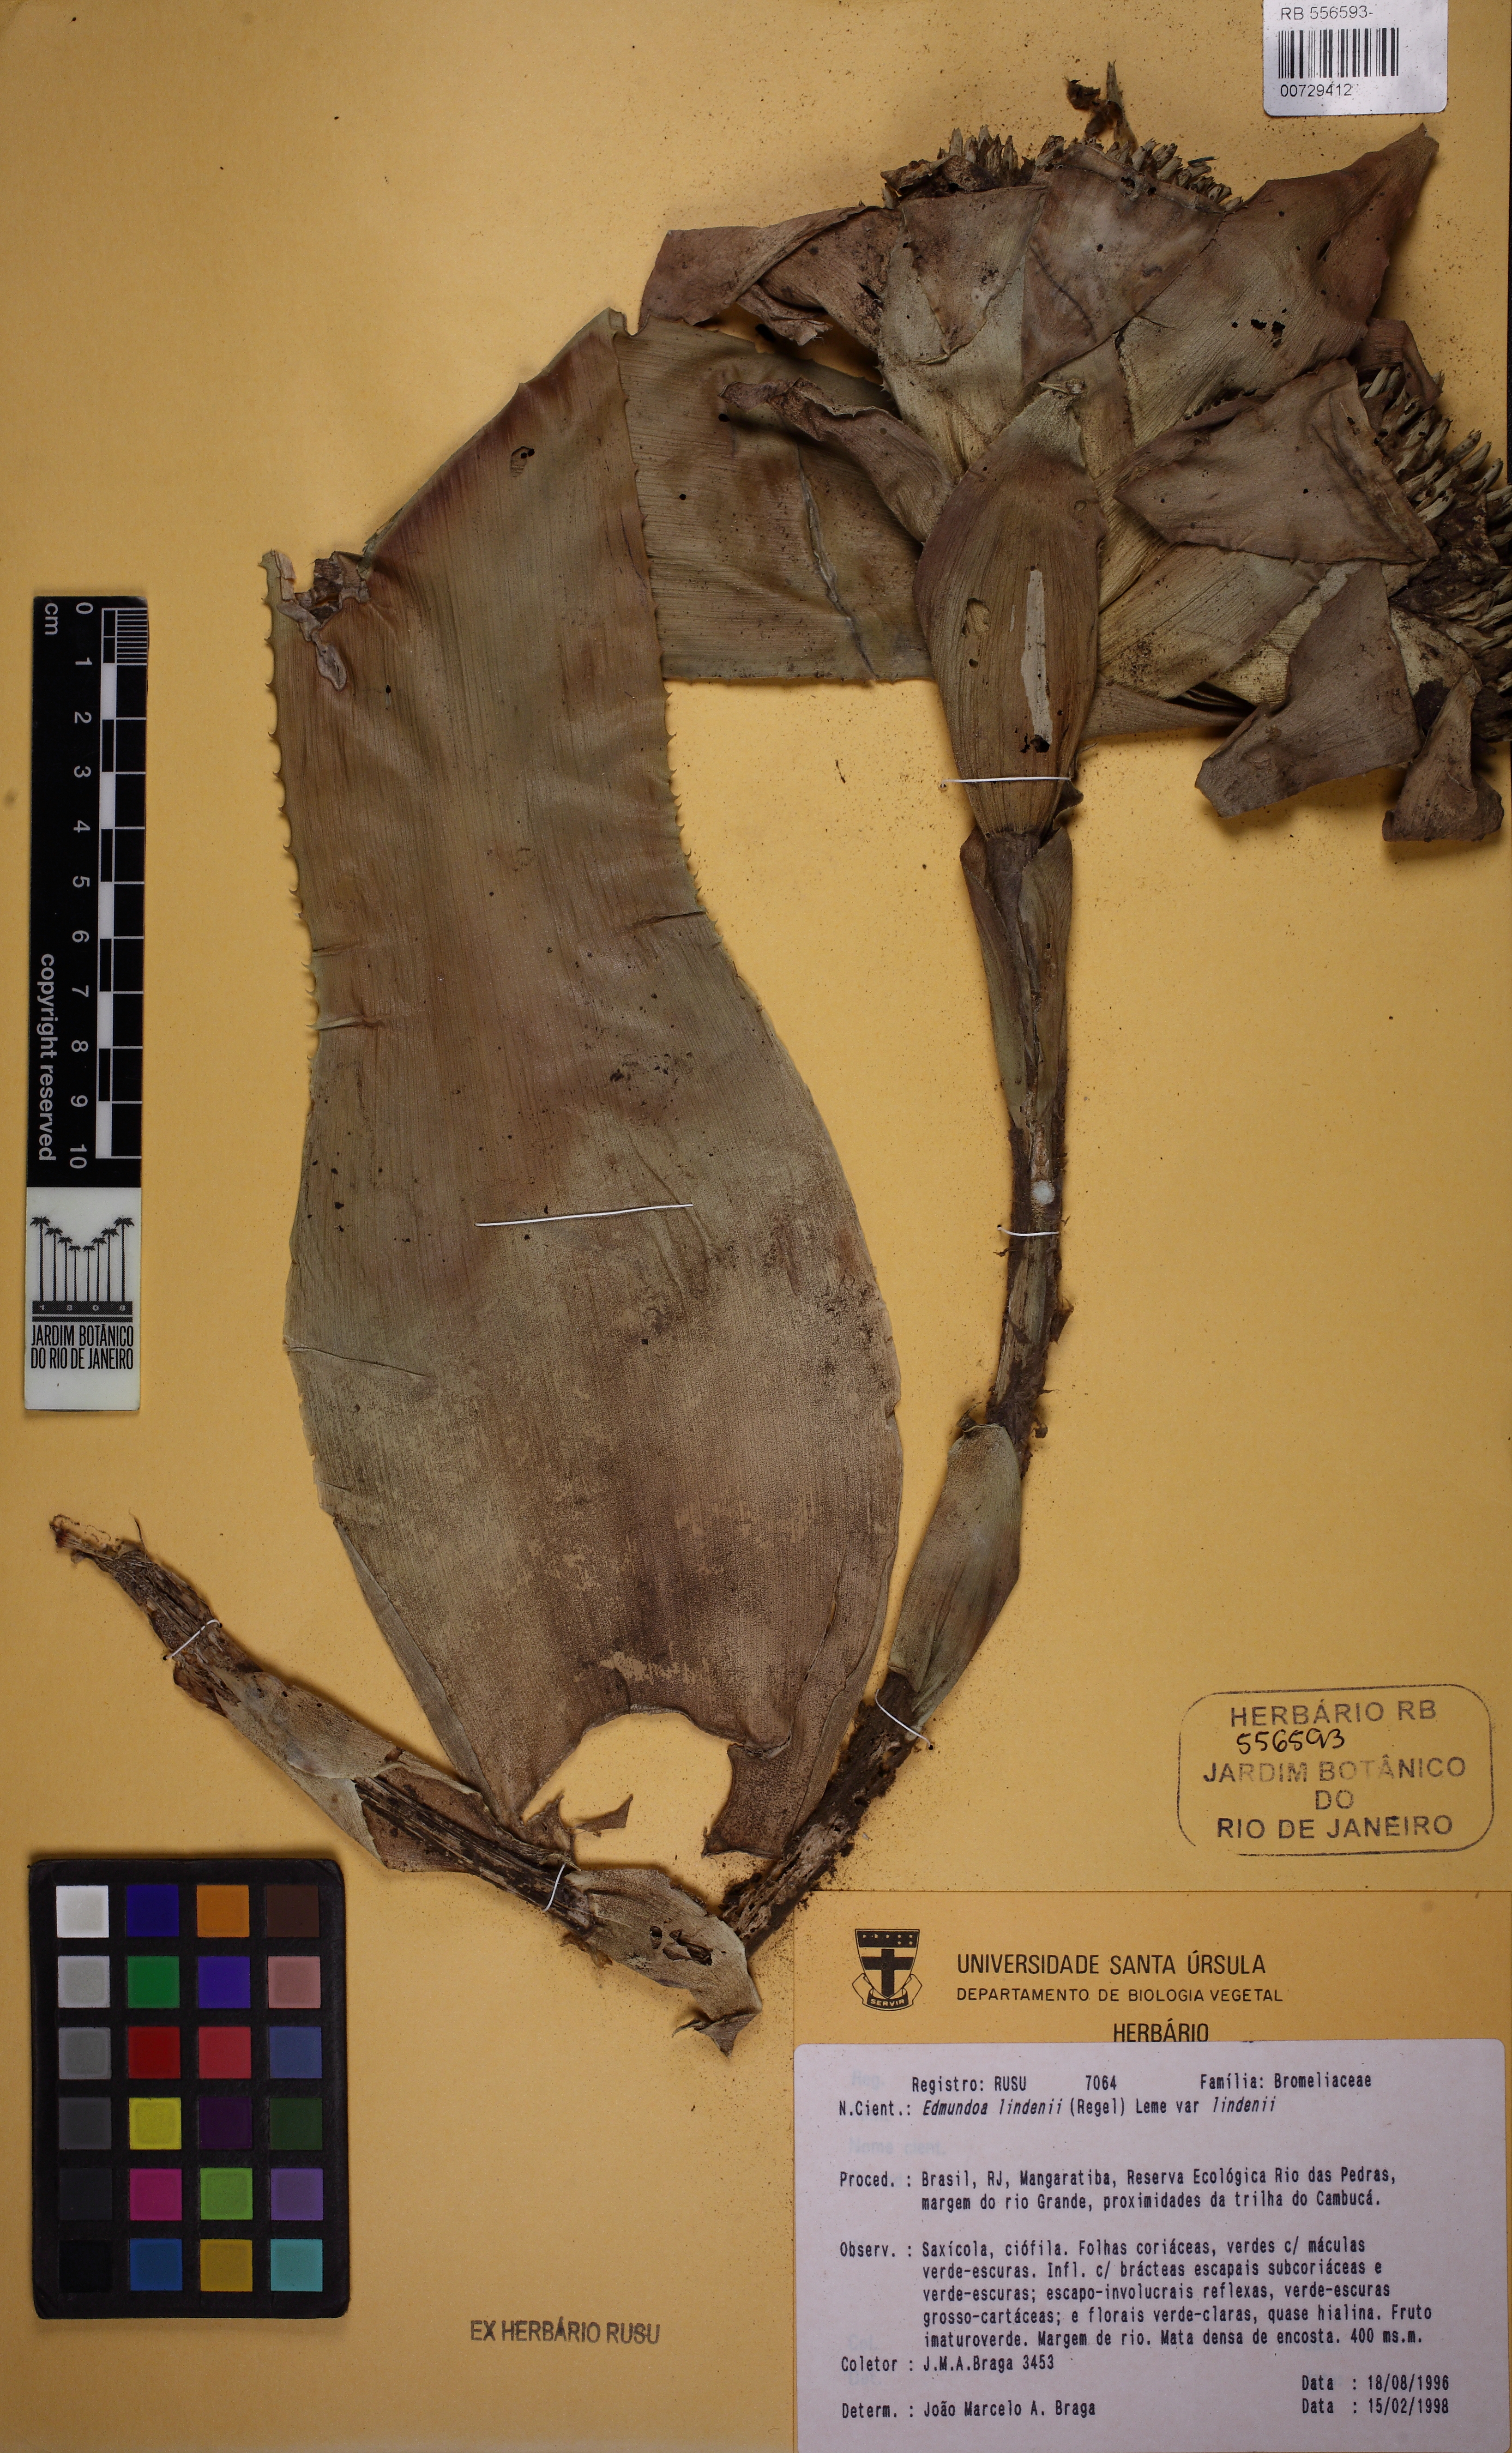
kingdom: Plantae
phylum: Tracheophyta
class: Liliopsida
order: Poales
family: Bromeliaceae
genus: Edmundoa
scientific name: Edmundoa lindenii
